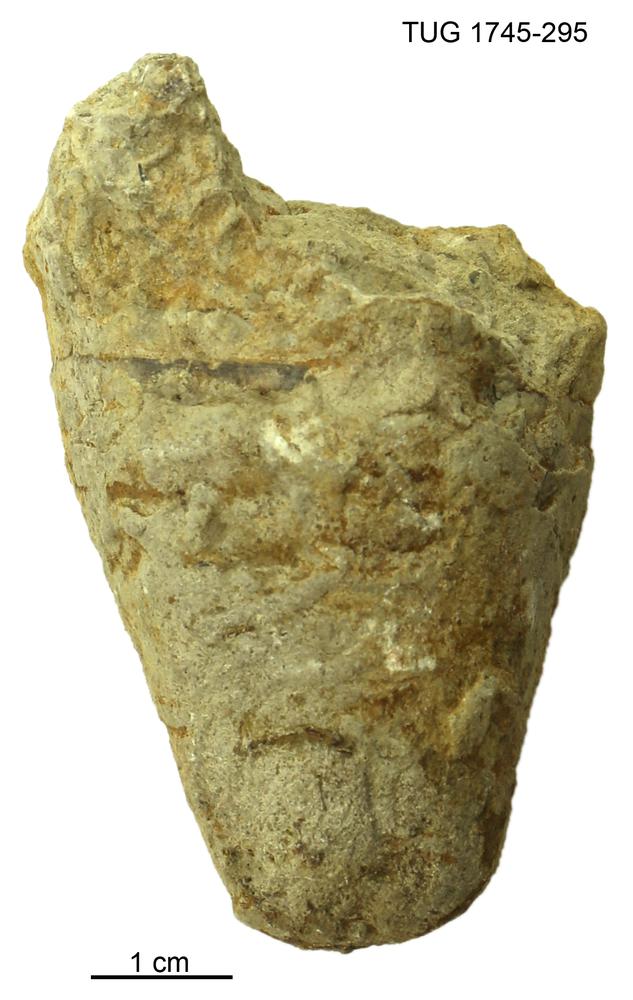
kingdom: Animalia
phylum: Mollusca
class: Cephalopoda
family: Phragmoceratidae
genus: Phragmoceras
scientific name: Phragmoceras
